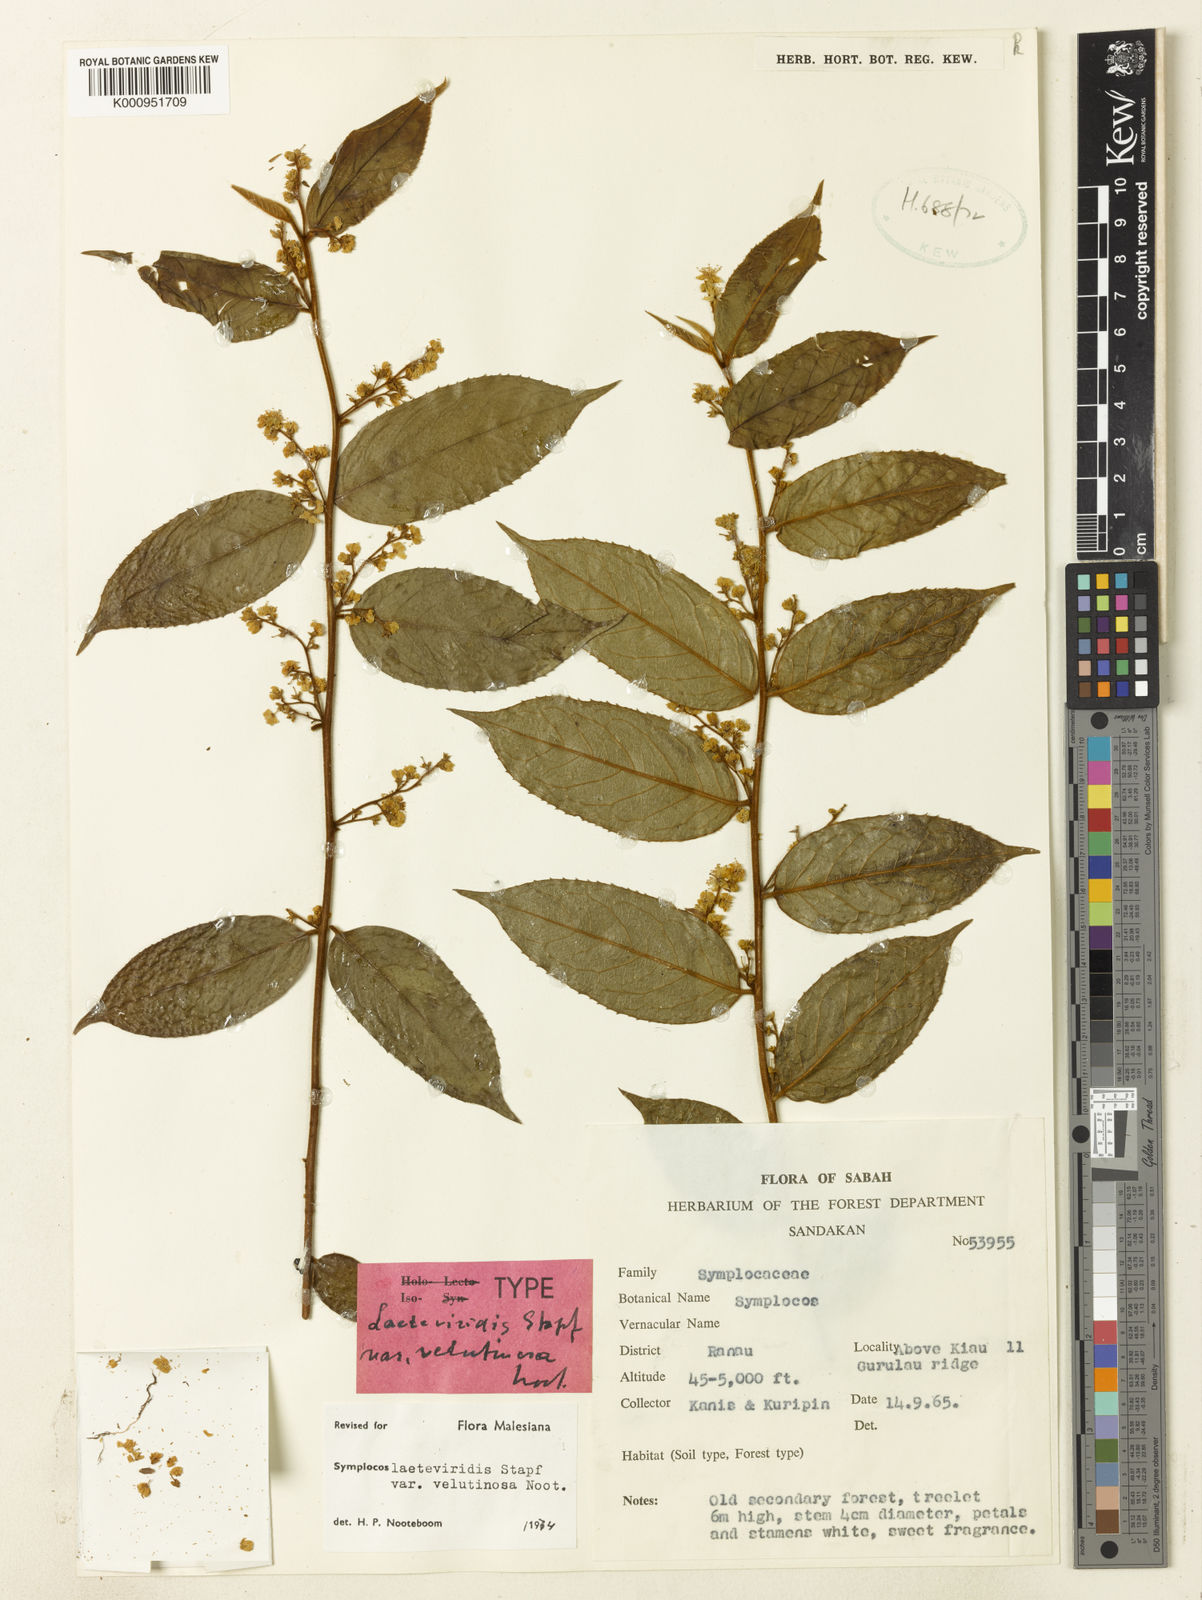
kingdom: Plantae
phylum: Tracheophyta
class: Magnoliopsida
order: Ericales
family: Symplocaceae
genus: Symplocos
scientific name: Symplocos laeteviridis
